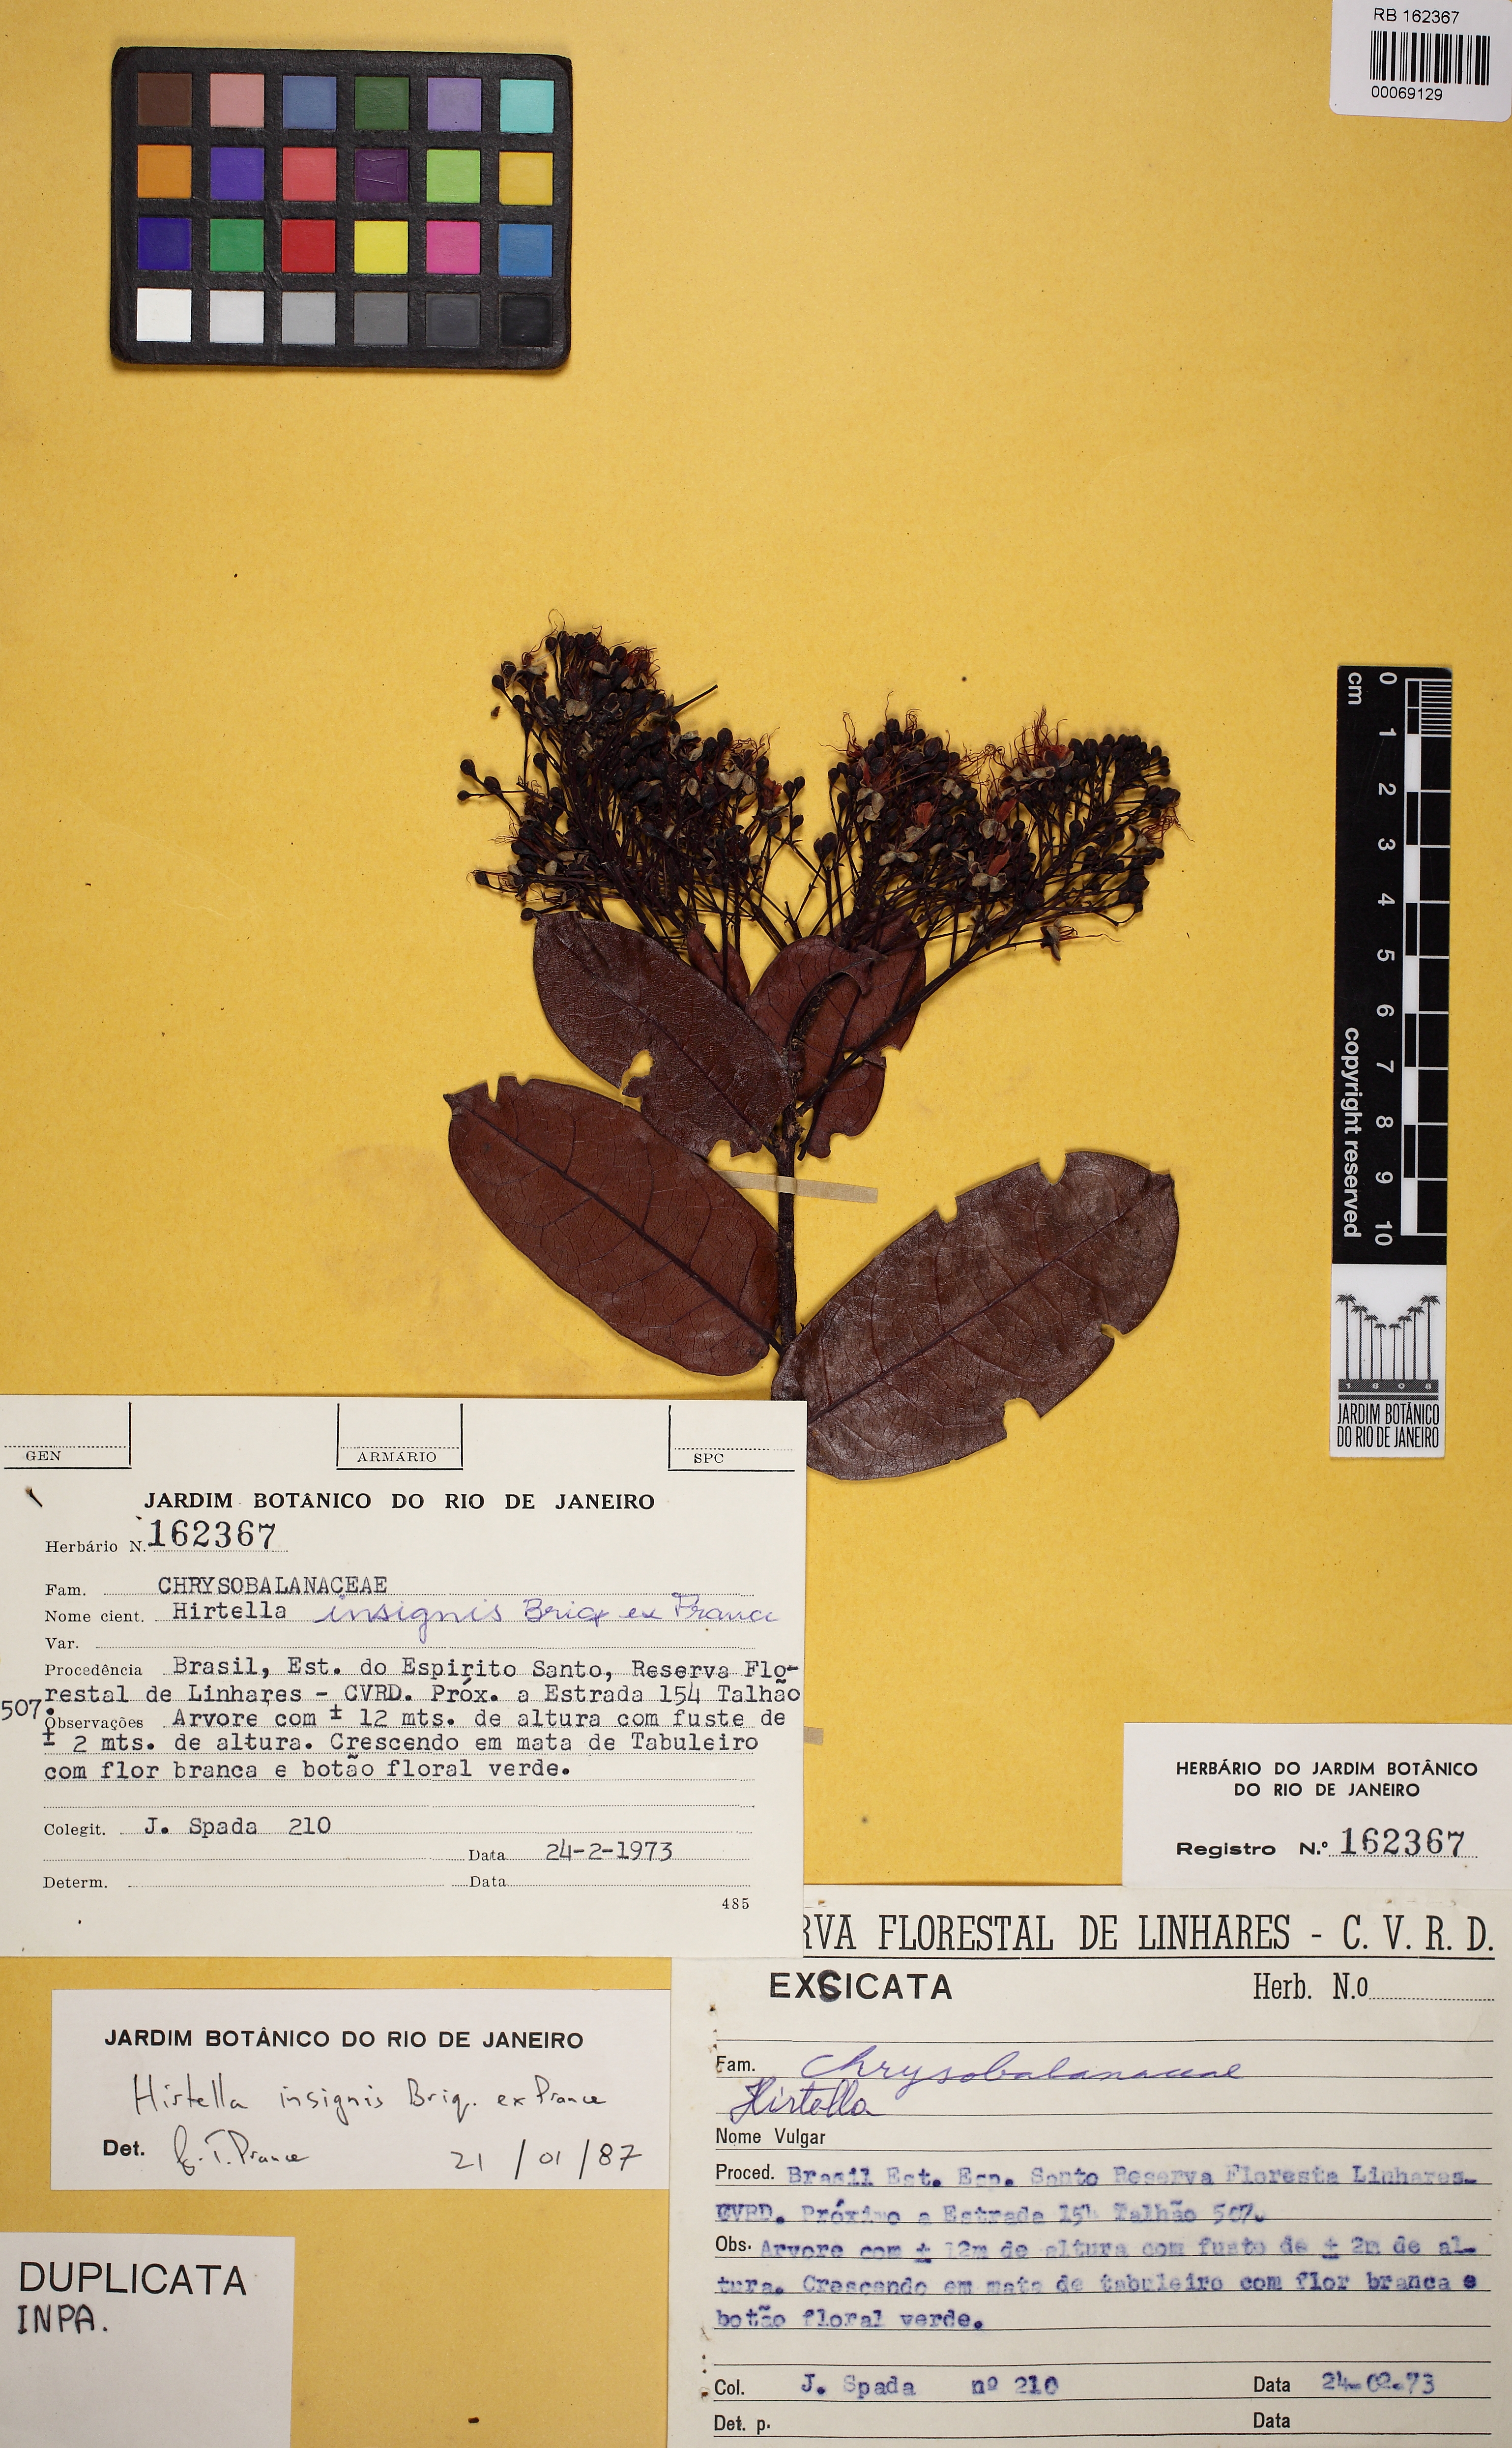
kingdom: Plantae
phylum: Tracheophyta
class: Magnoliopsida
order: Malpighiales
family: Chrysobalanaceae
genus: Hirtella
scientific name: Hirtella insignis
